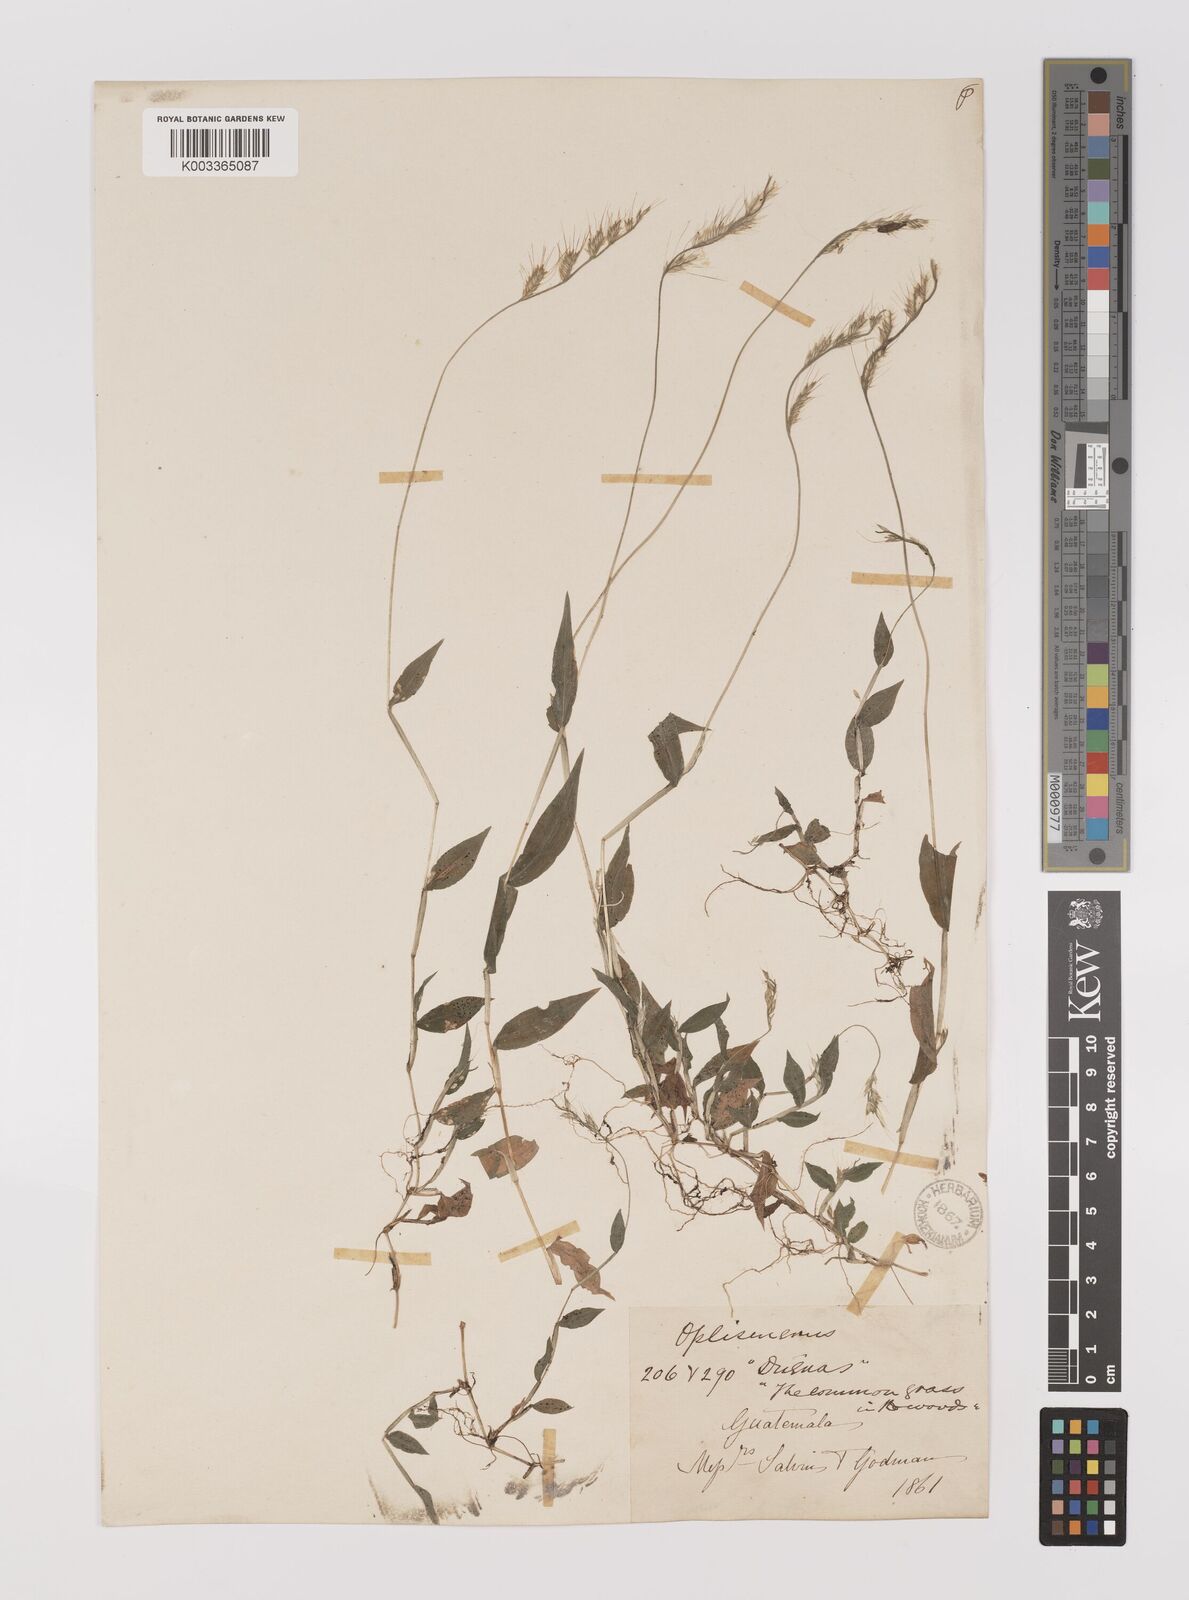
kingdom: Plantae
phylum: Tracheophyta
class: Liliopsida
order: Poales
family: Poaceae
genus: Oplismenus
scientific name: Oplismenus burmanni
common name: Burmann's basketgrass
